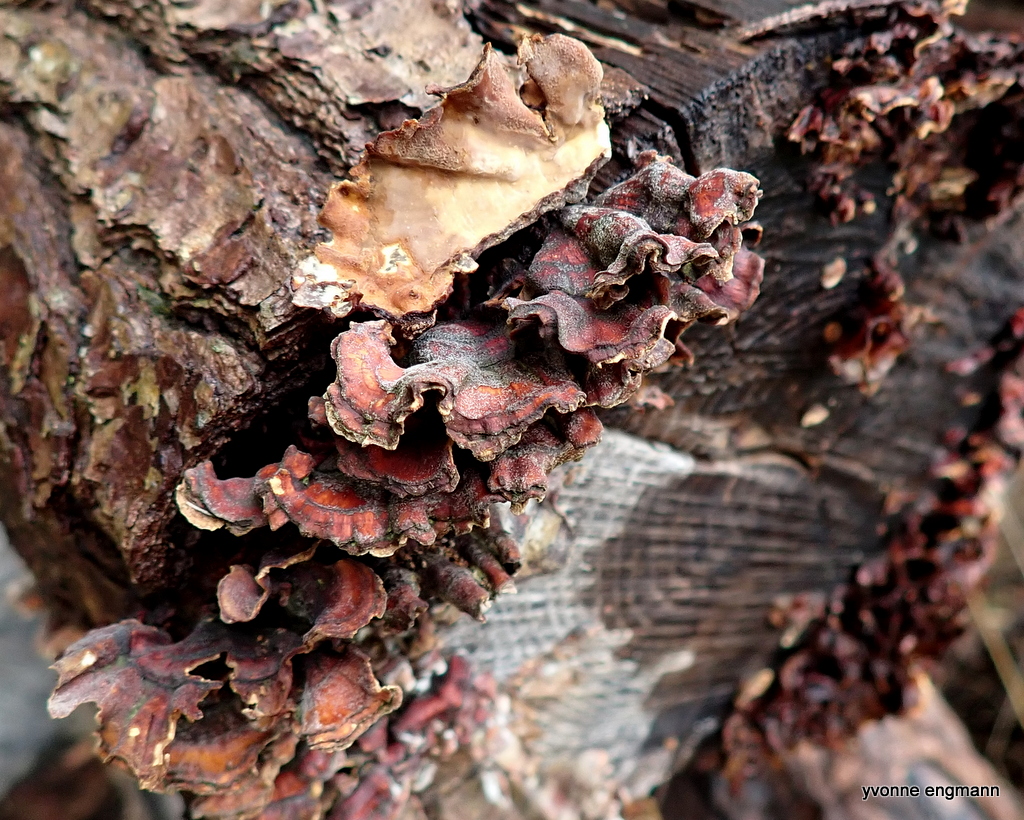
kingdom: Fungi
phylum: Basidiomycota
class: Agaricomycetes
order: Russulales
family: Stereaceae
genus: Stereum
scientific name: Stereum subtomentosum
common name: smuk lædersvamp
